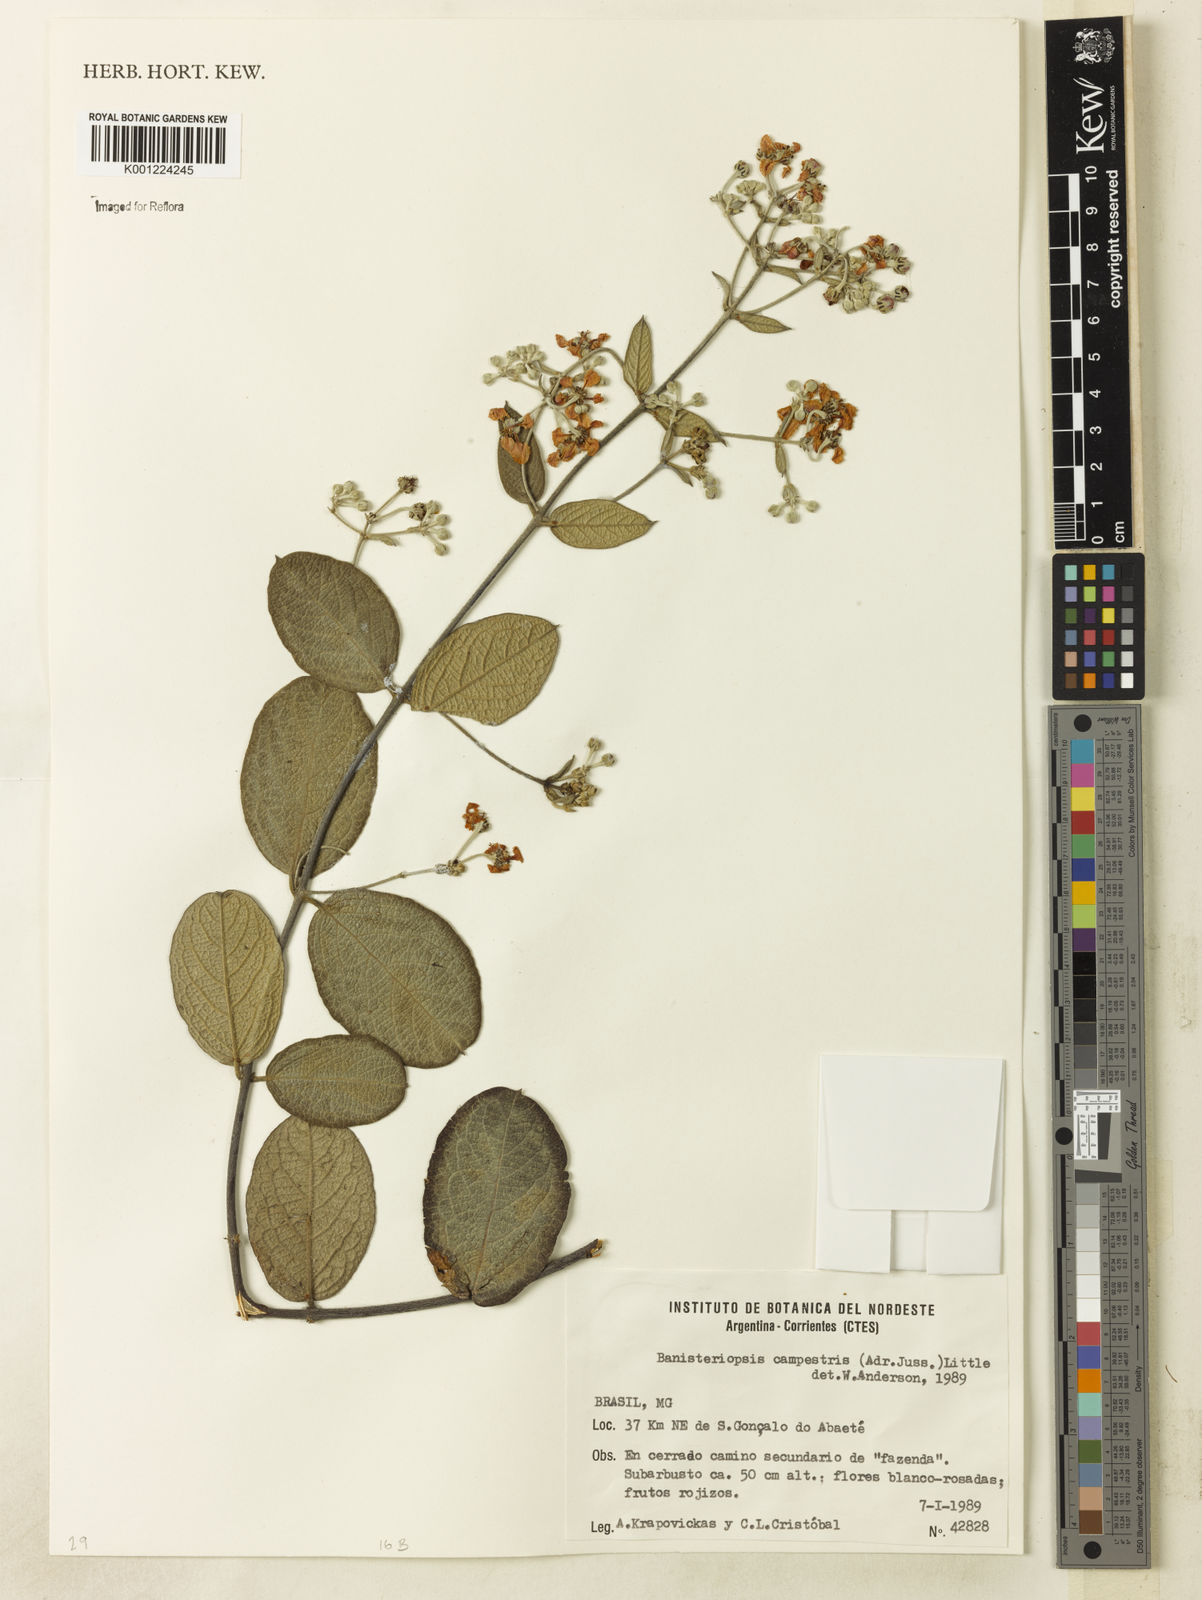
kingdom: Plantae
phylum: Tracheophyta
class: Magnoliopsida
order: Malpighiales
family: Malpighiaceae
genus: Banisteriopsis
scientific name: Banisteriopsis campestris
